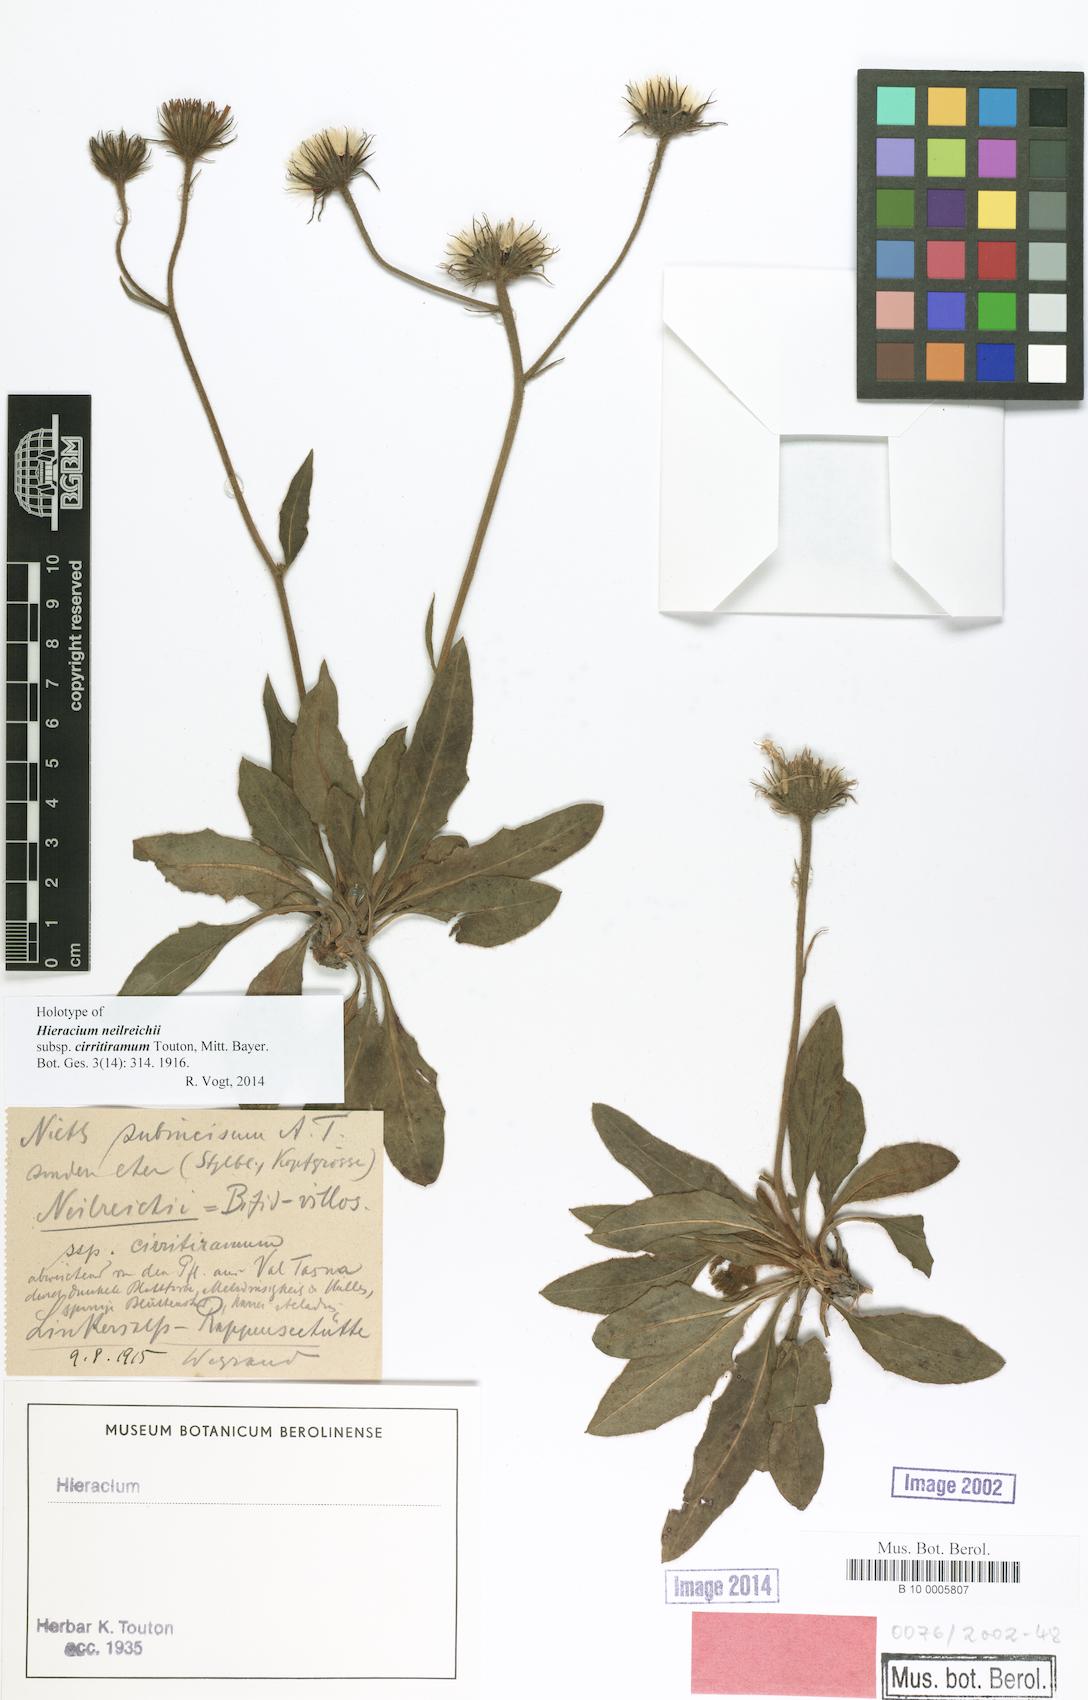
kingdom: Plantae
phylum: Tracheophyta
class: Magnoliopsida
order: Asterales
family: Asteraceae
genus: Hieracium
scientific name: Hieracium pallescens
